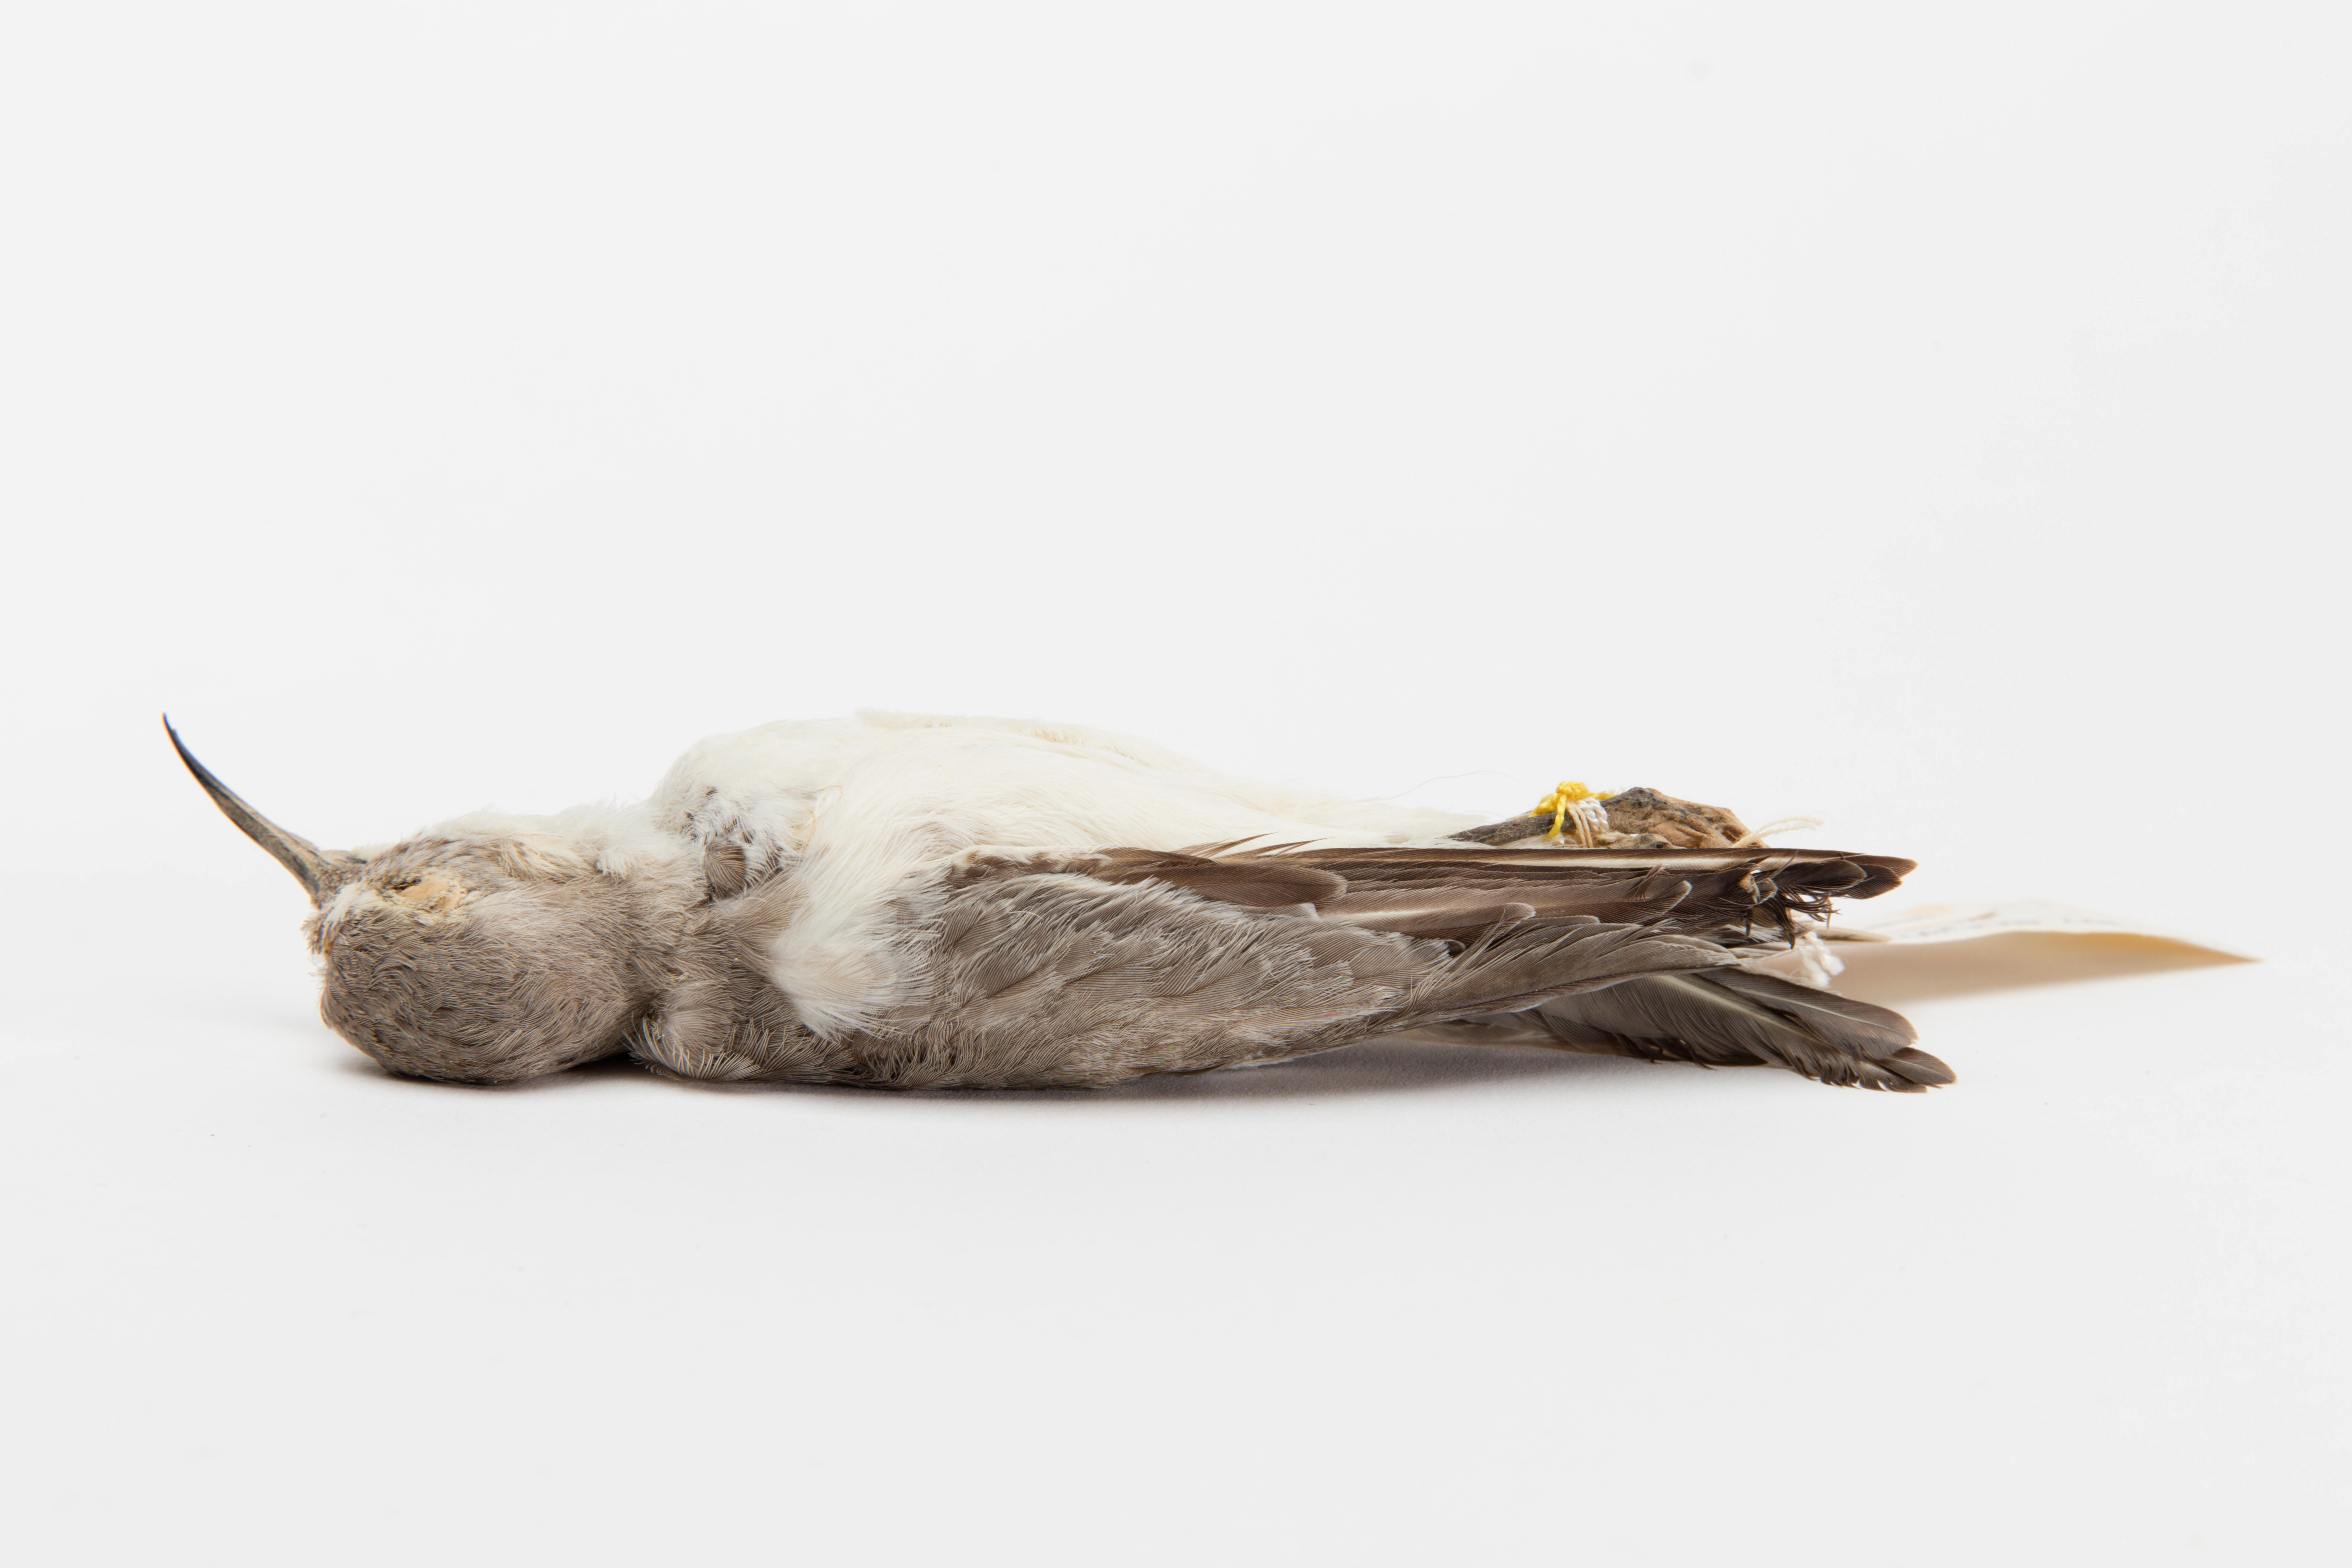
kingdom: Animalia
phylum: Chordata
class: Aves
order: Charadriiformes
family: Charadriidae
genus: Charadrius
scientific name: Charadrius frontalis
